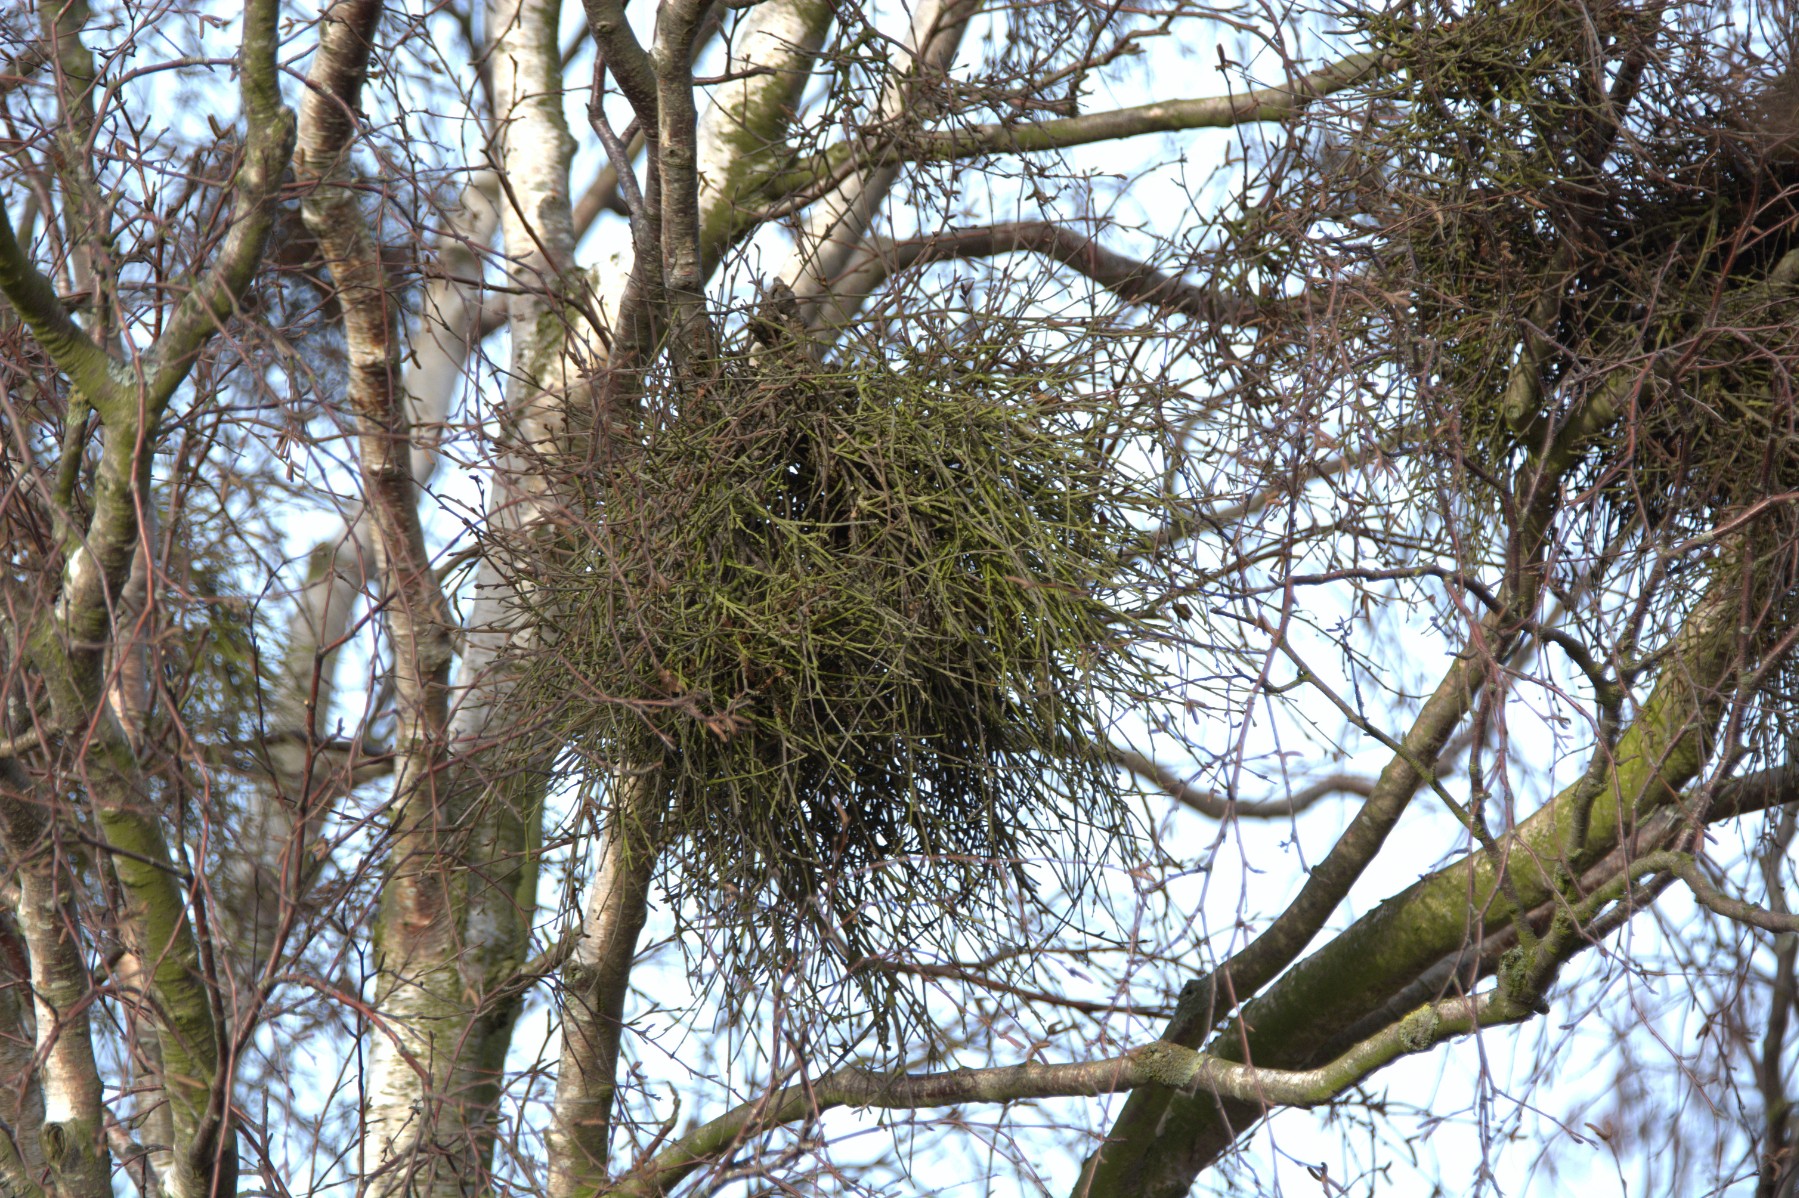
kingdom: Fungi
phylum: Ascomycota
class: Taphrinomycetes
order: Taphrinales
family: Taphrinaceae
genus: Taphrina
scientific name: Taphrina betulina
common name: hekse-sækdug
